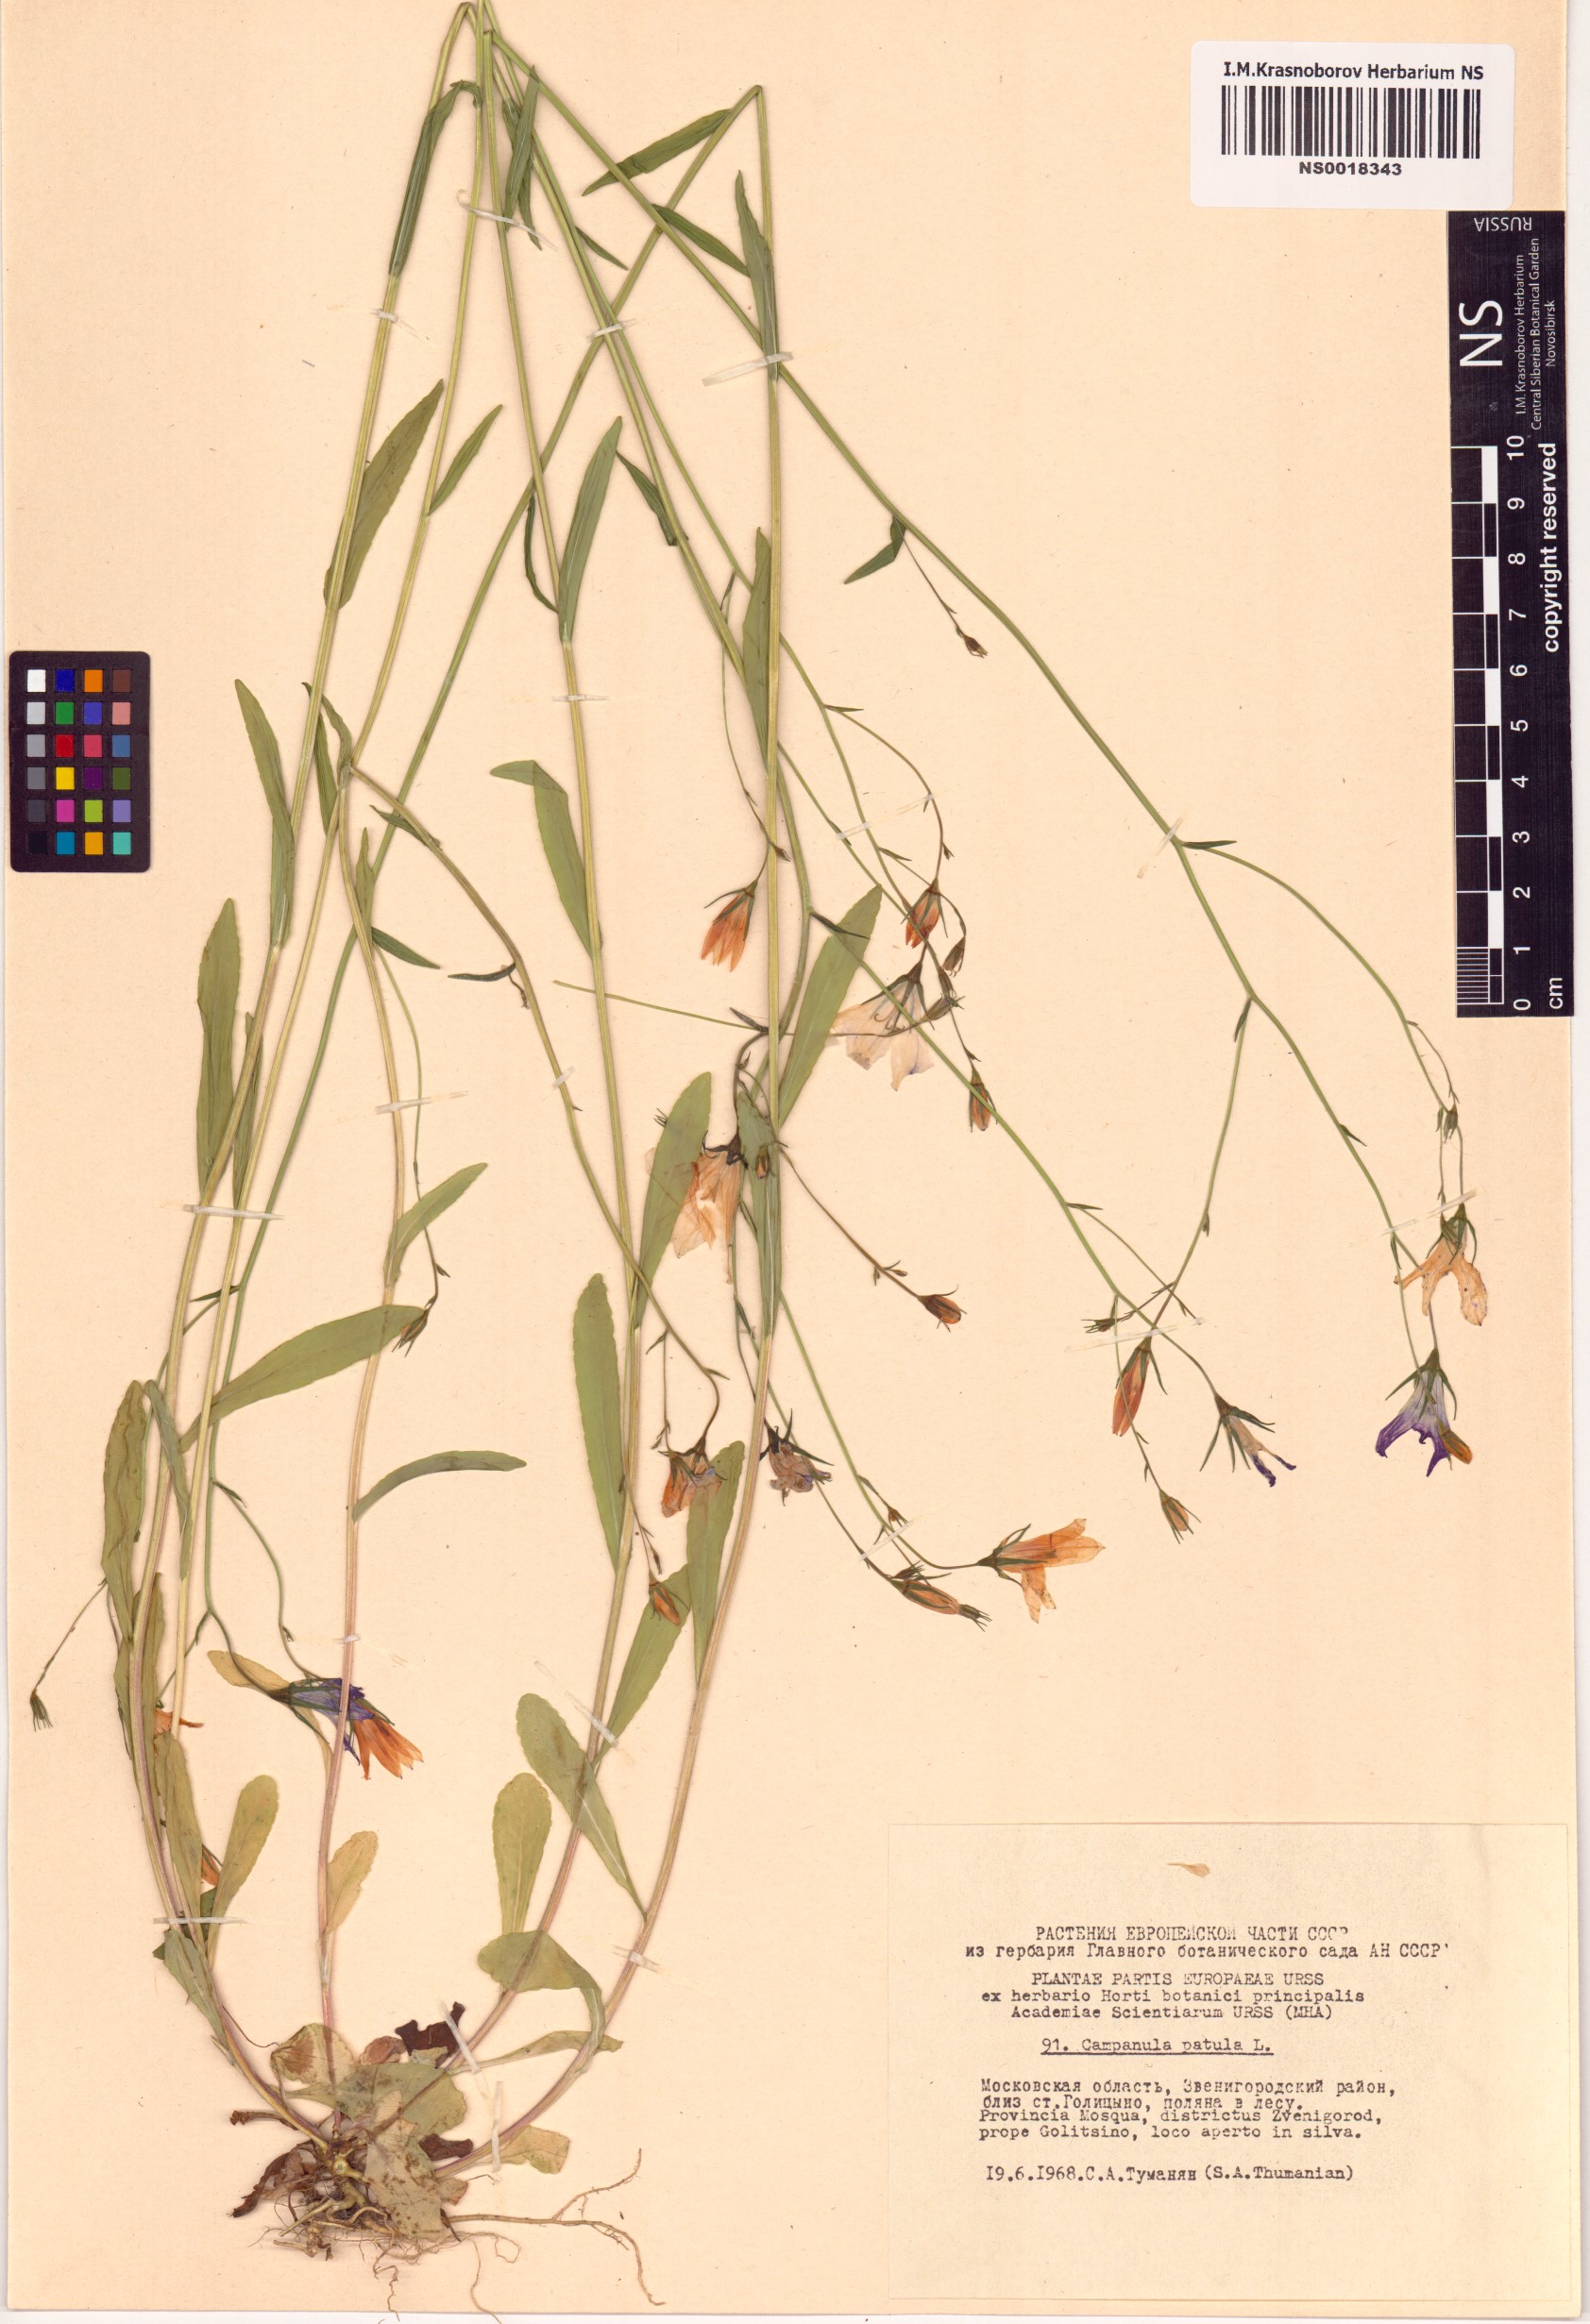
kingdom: Plantae
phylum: Tracheophyta
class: Magnoliopsida
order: Asterales
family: Campanulaceae
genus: Campanula
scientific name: Campanula patula
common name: Spreading bellflower
